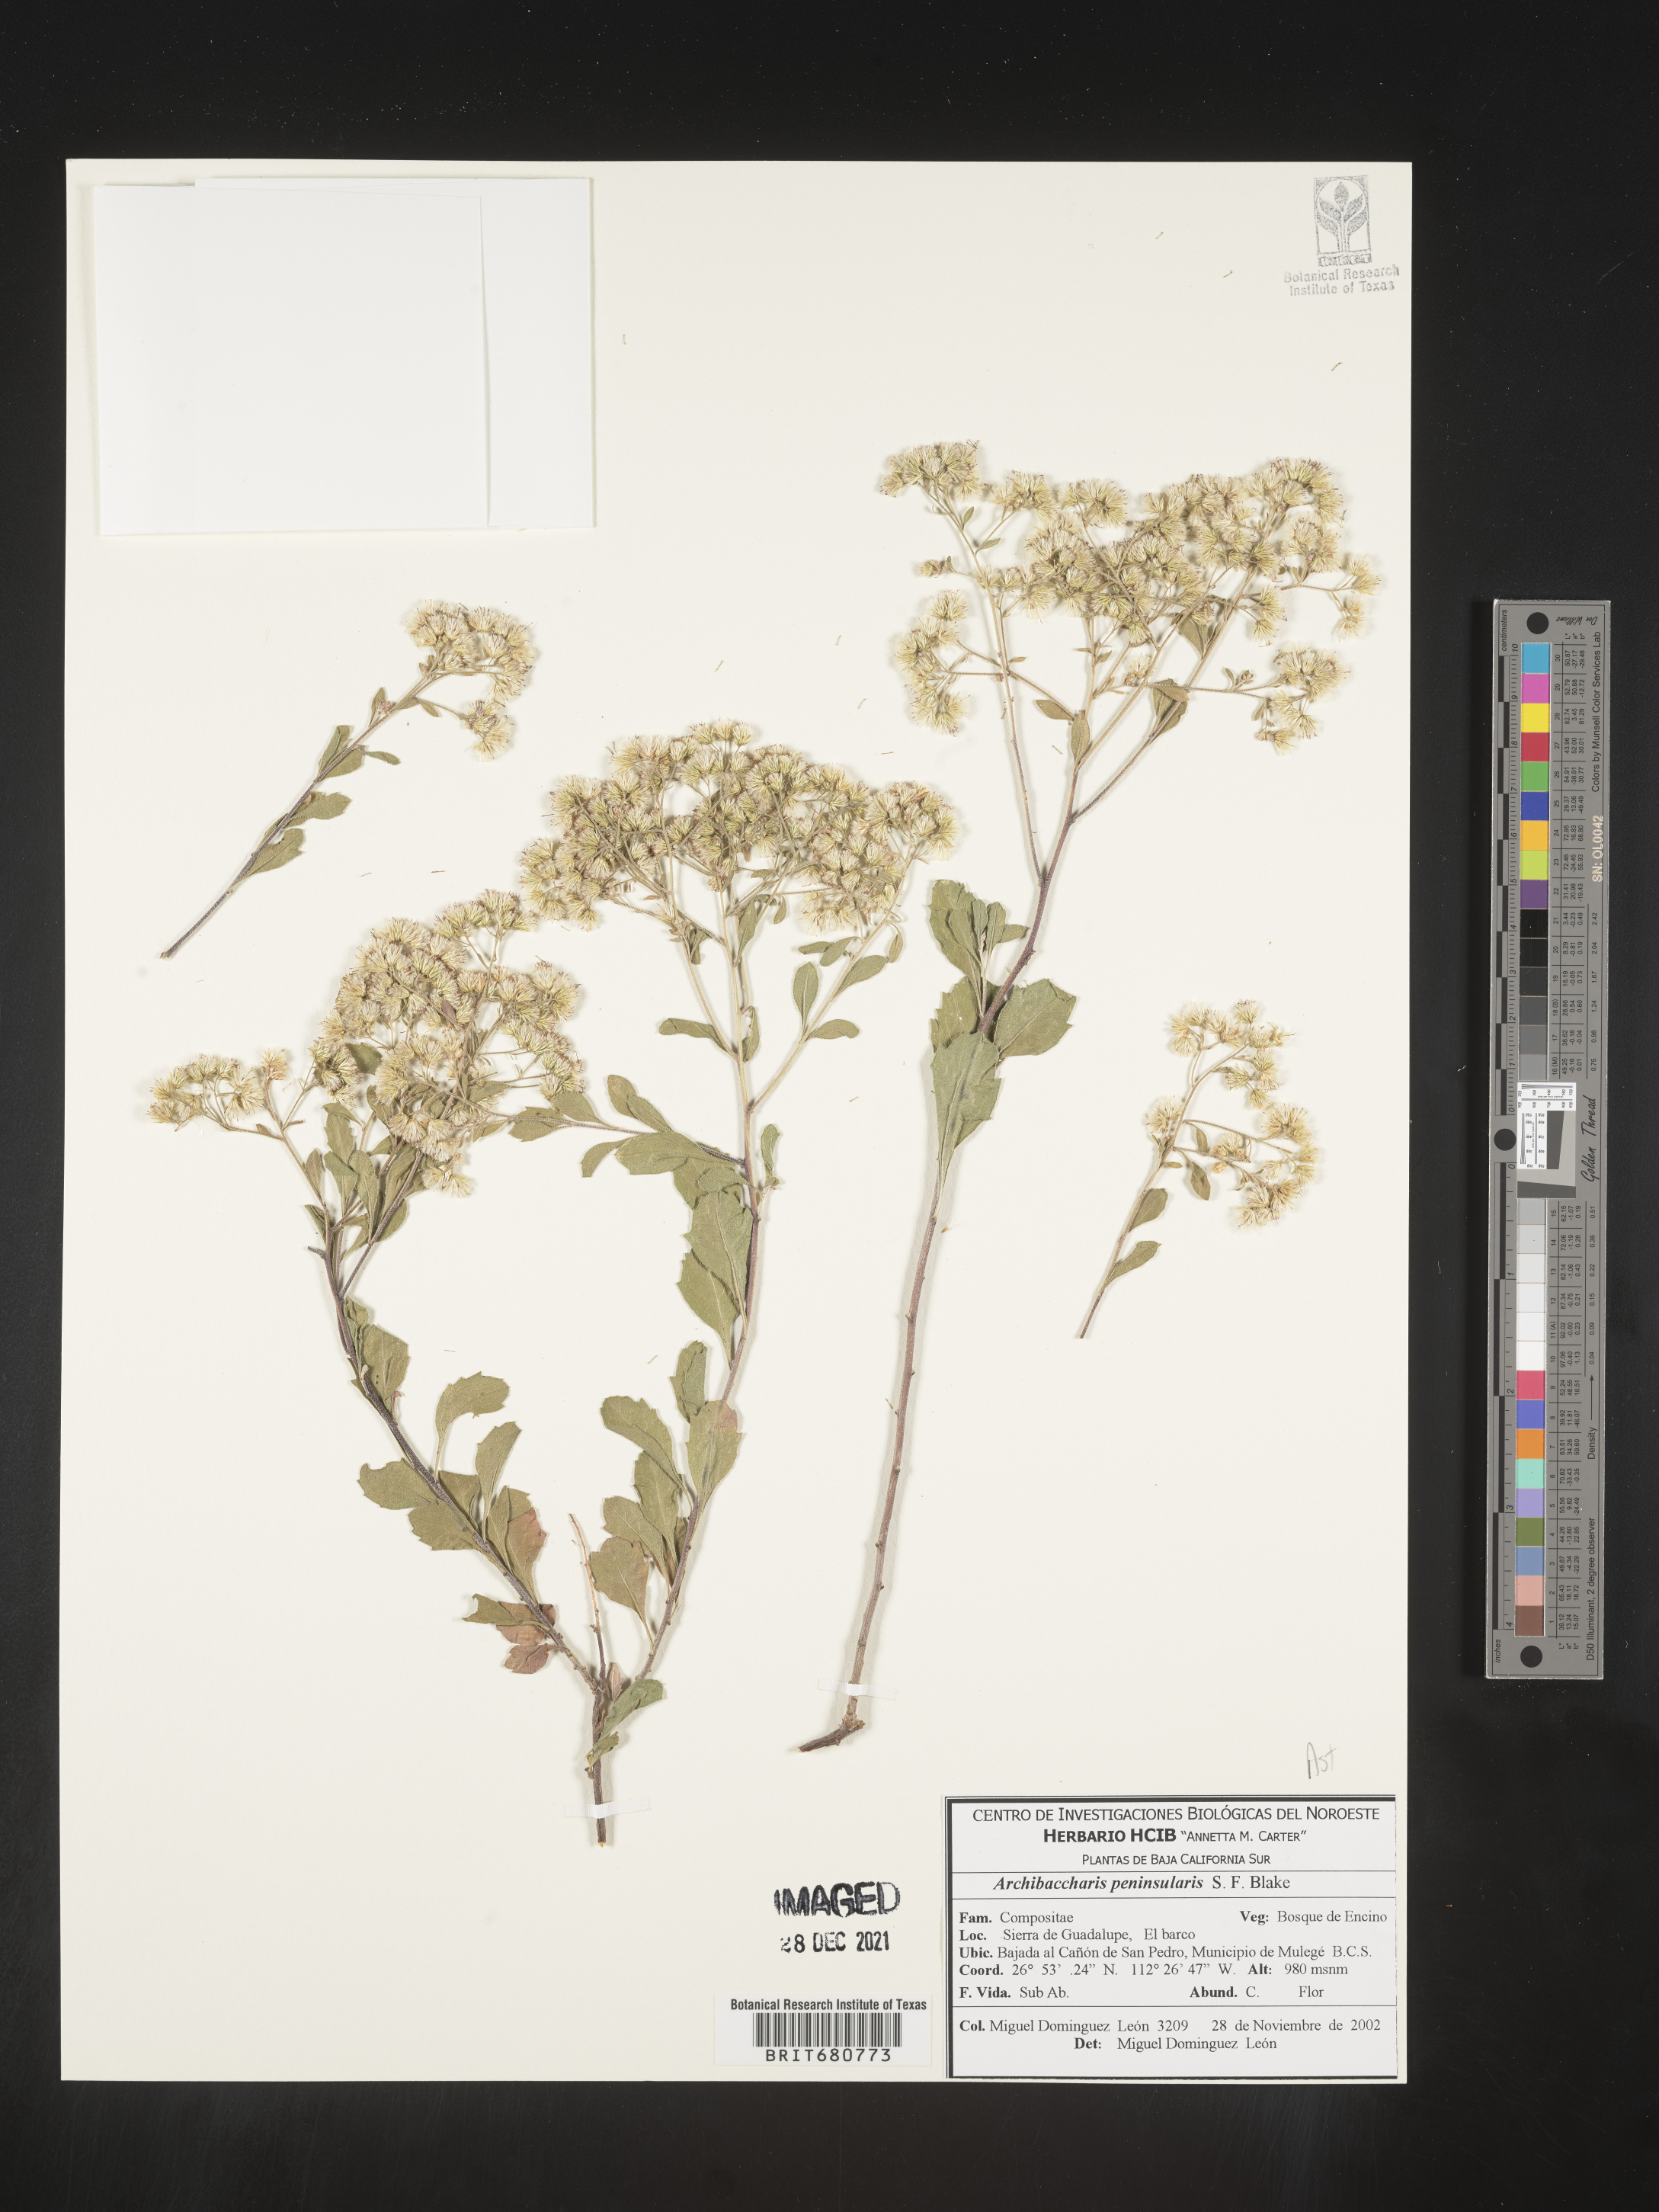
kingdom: Plantae
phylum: Tracheophyta
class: Magnoliopsida
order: Asterales
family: Asteraceae
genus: Archibaccharis
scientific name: Archibaccharis
